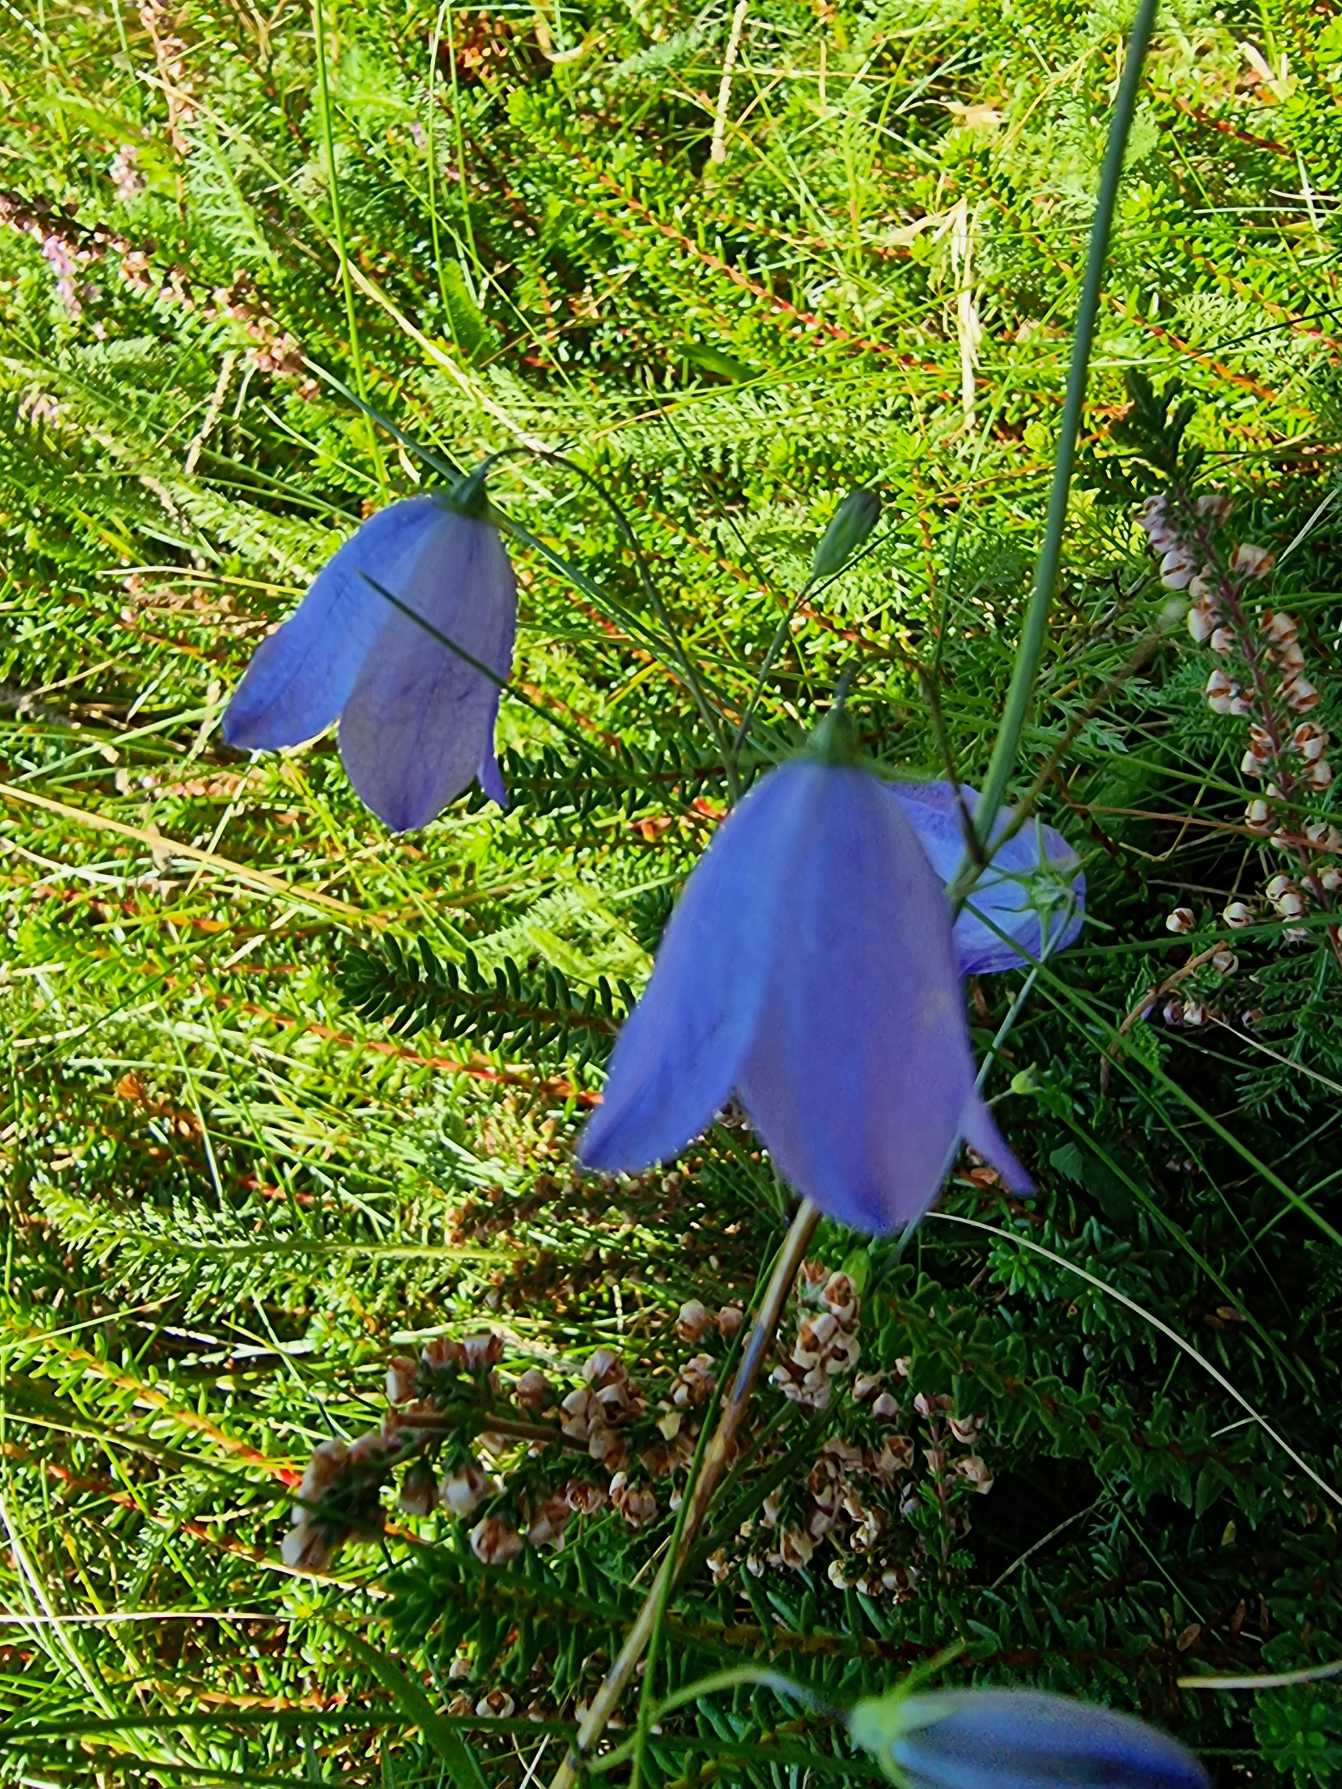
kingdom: Plantae
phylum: Tracheophyta
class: Magnoliopsida
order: Asterales
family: Campanulaceae
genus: Campanula
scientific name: Campanula rotundifolia
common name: Liden klokke
